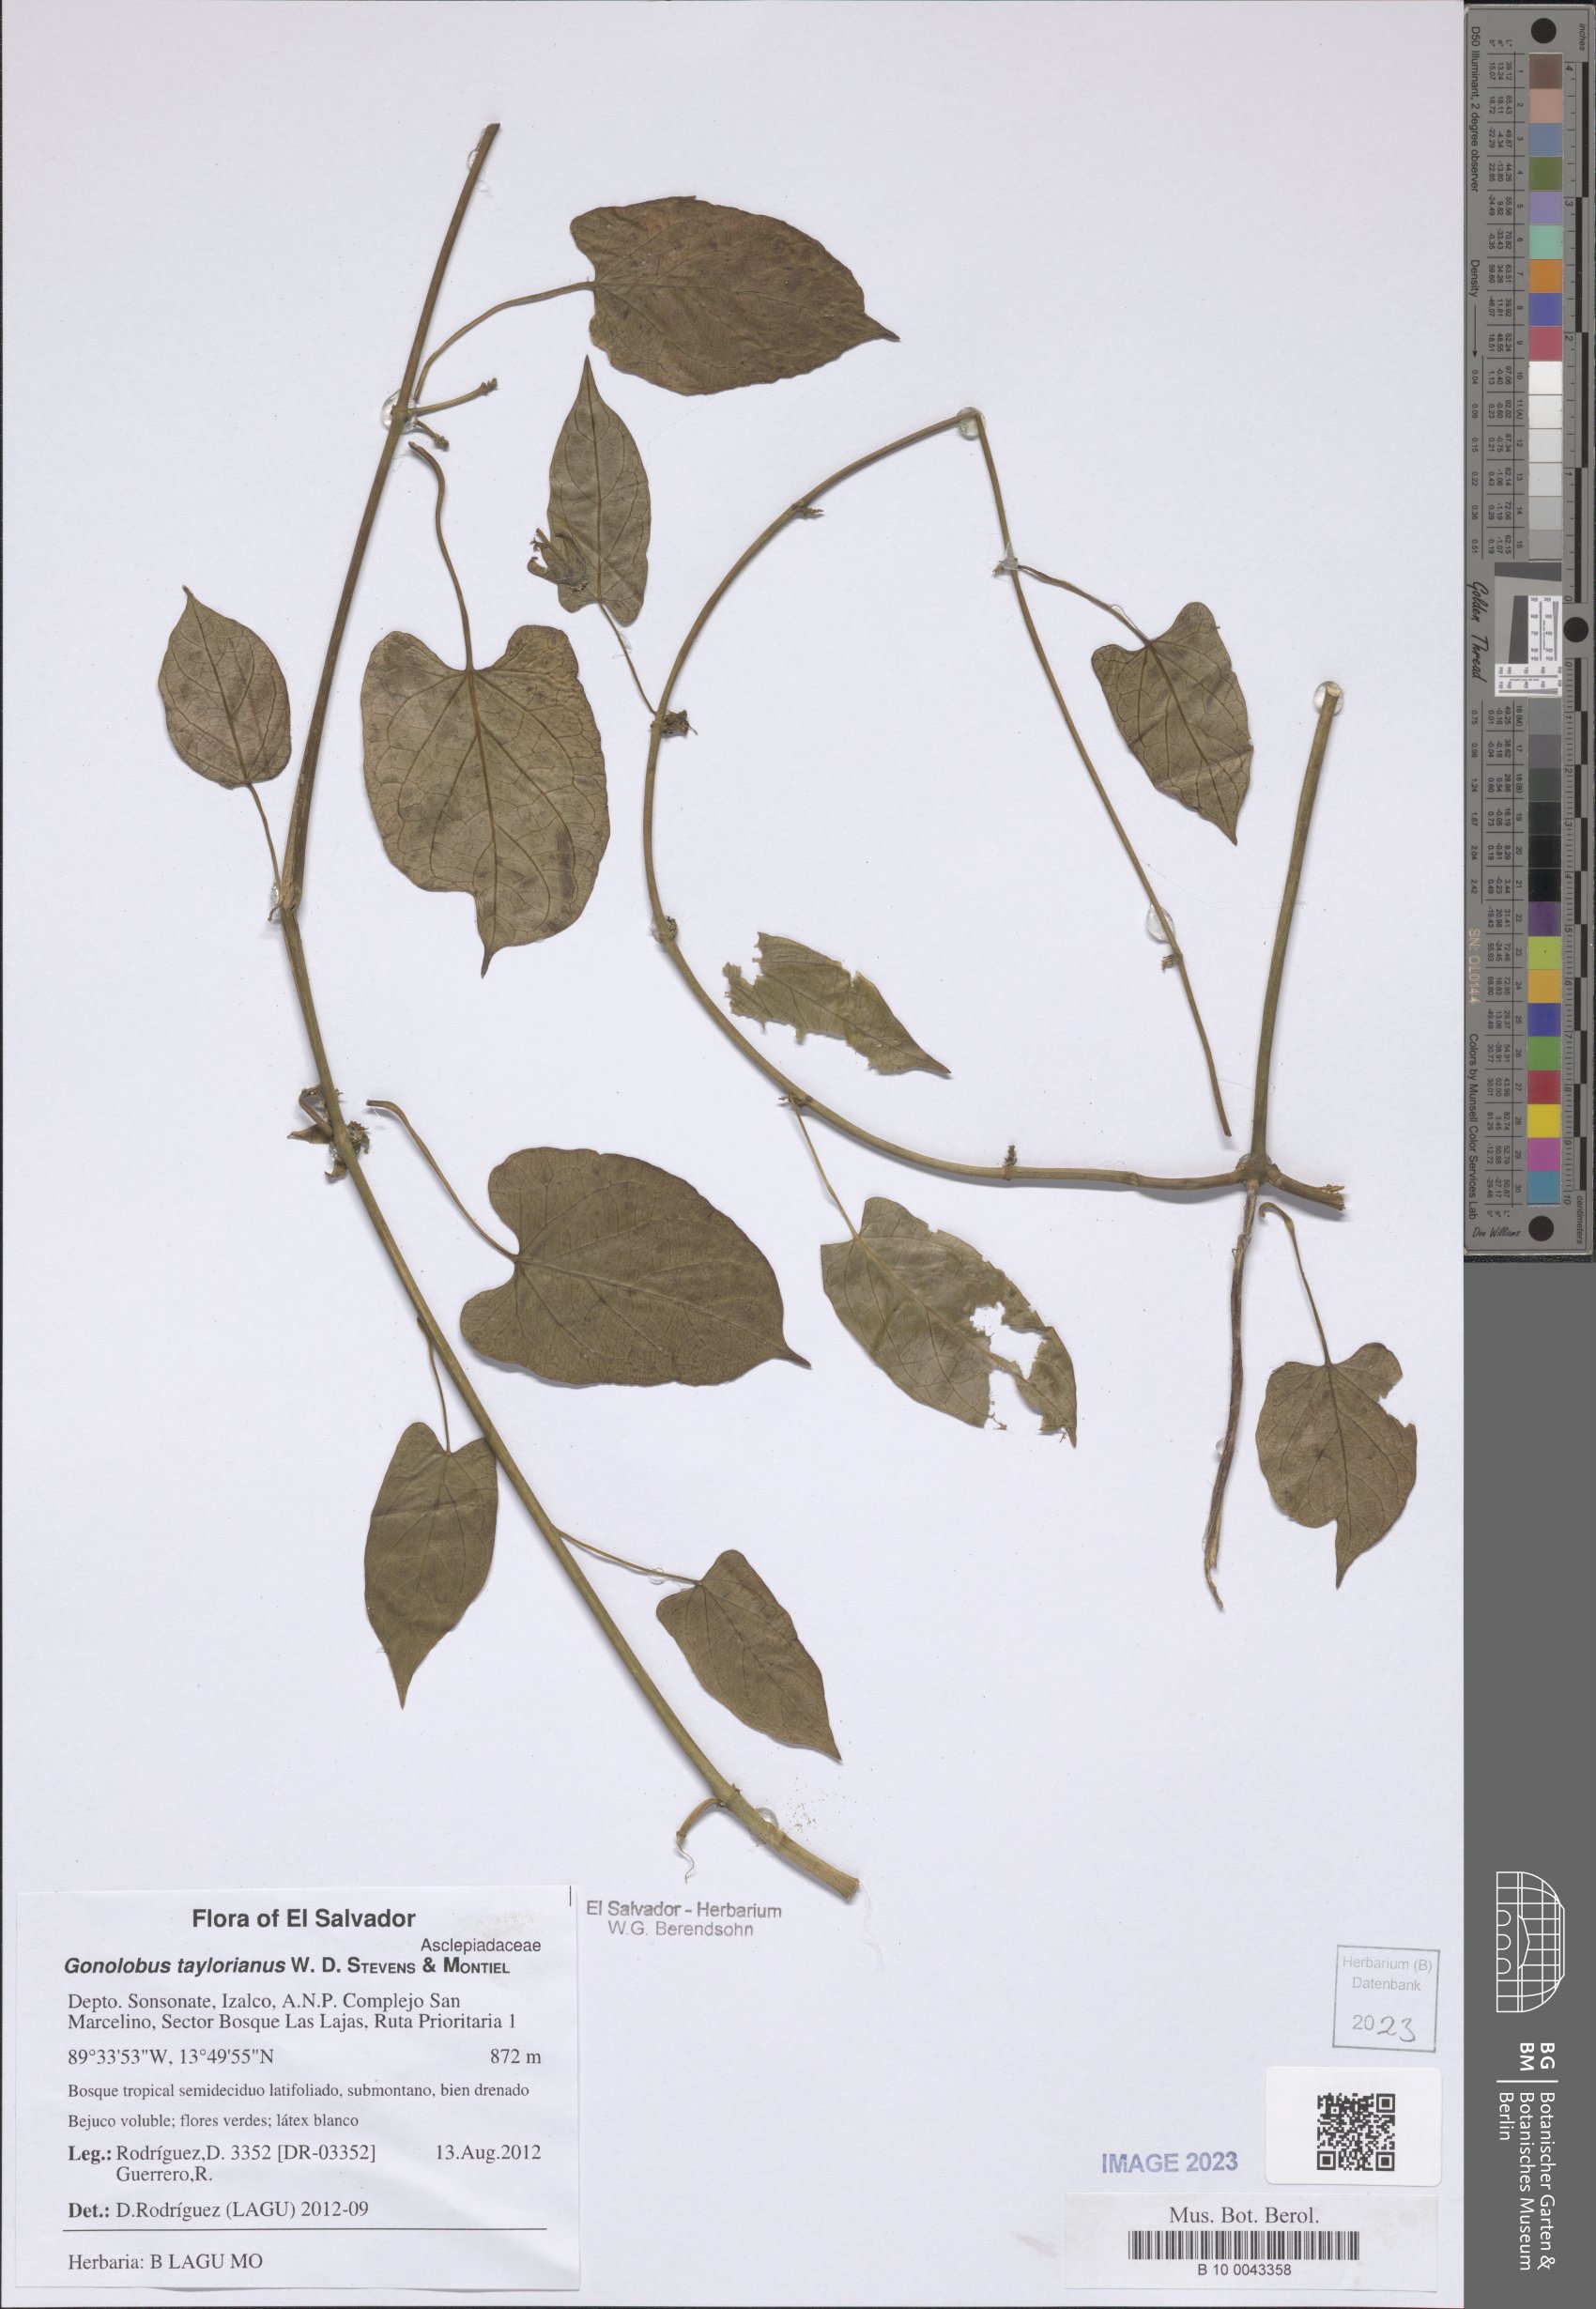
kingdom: Plantae
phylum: Tracheophyta
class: Magnoliopsida
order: Gentianales
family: Apocynaceae
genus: Gonolobus
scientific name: Gonolobus taylorianus
